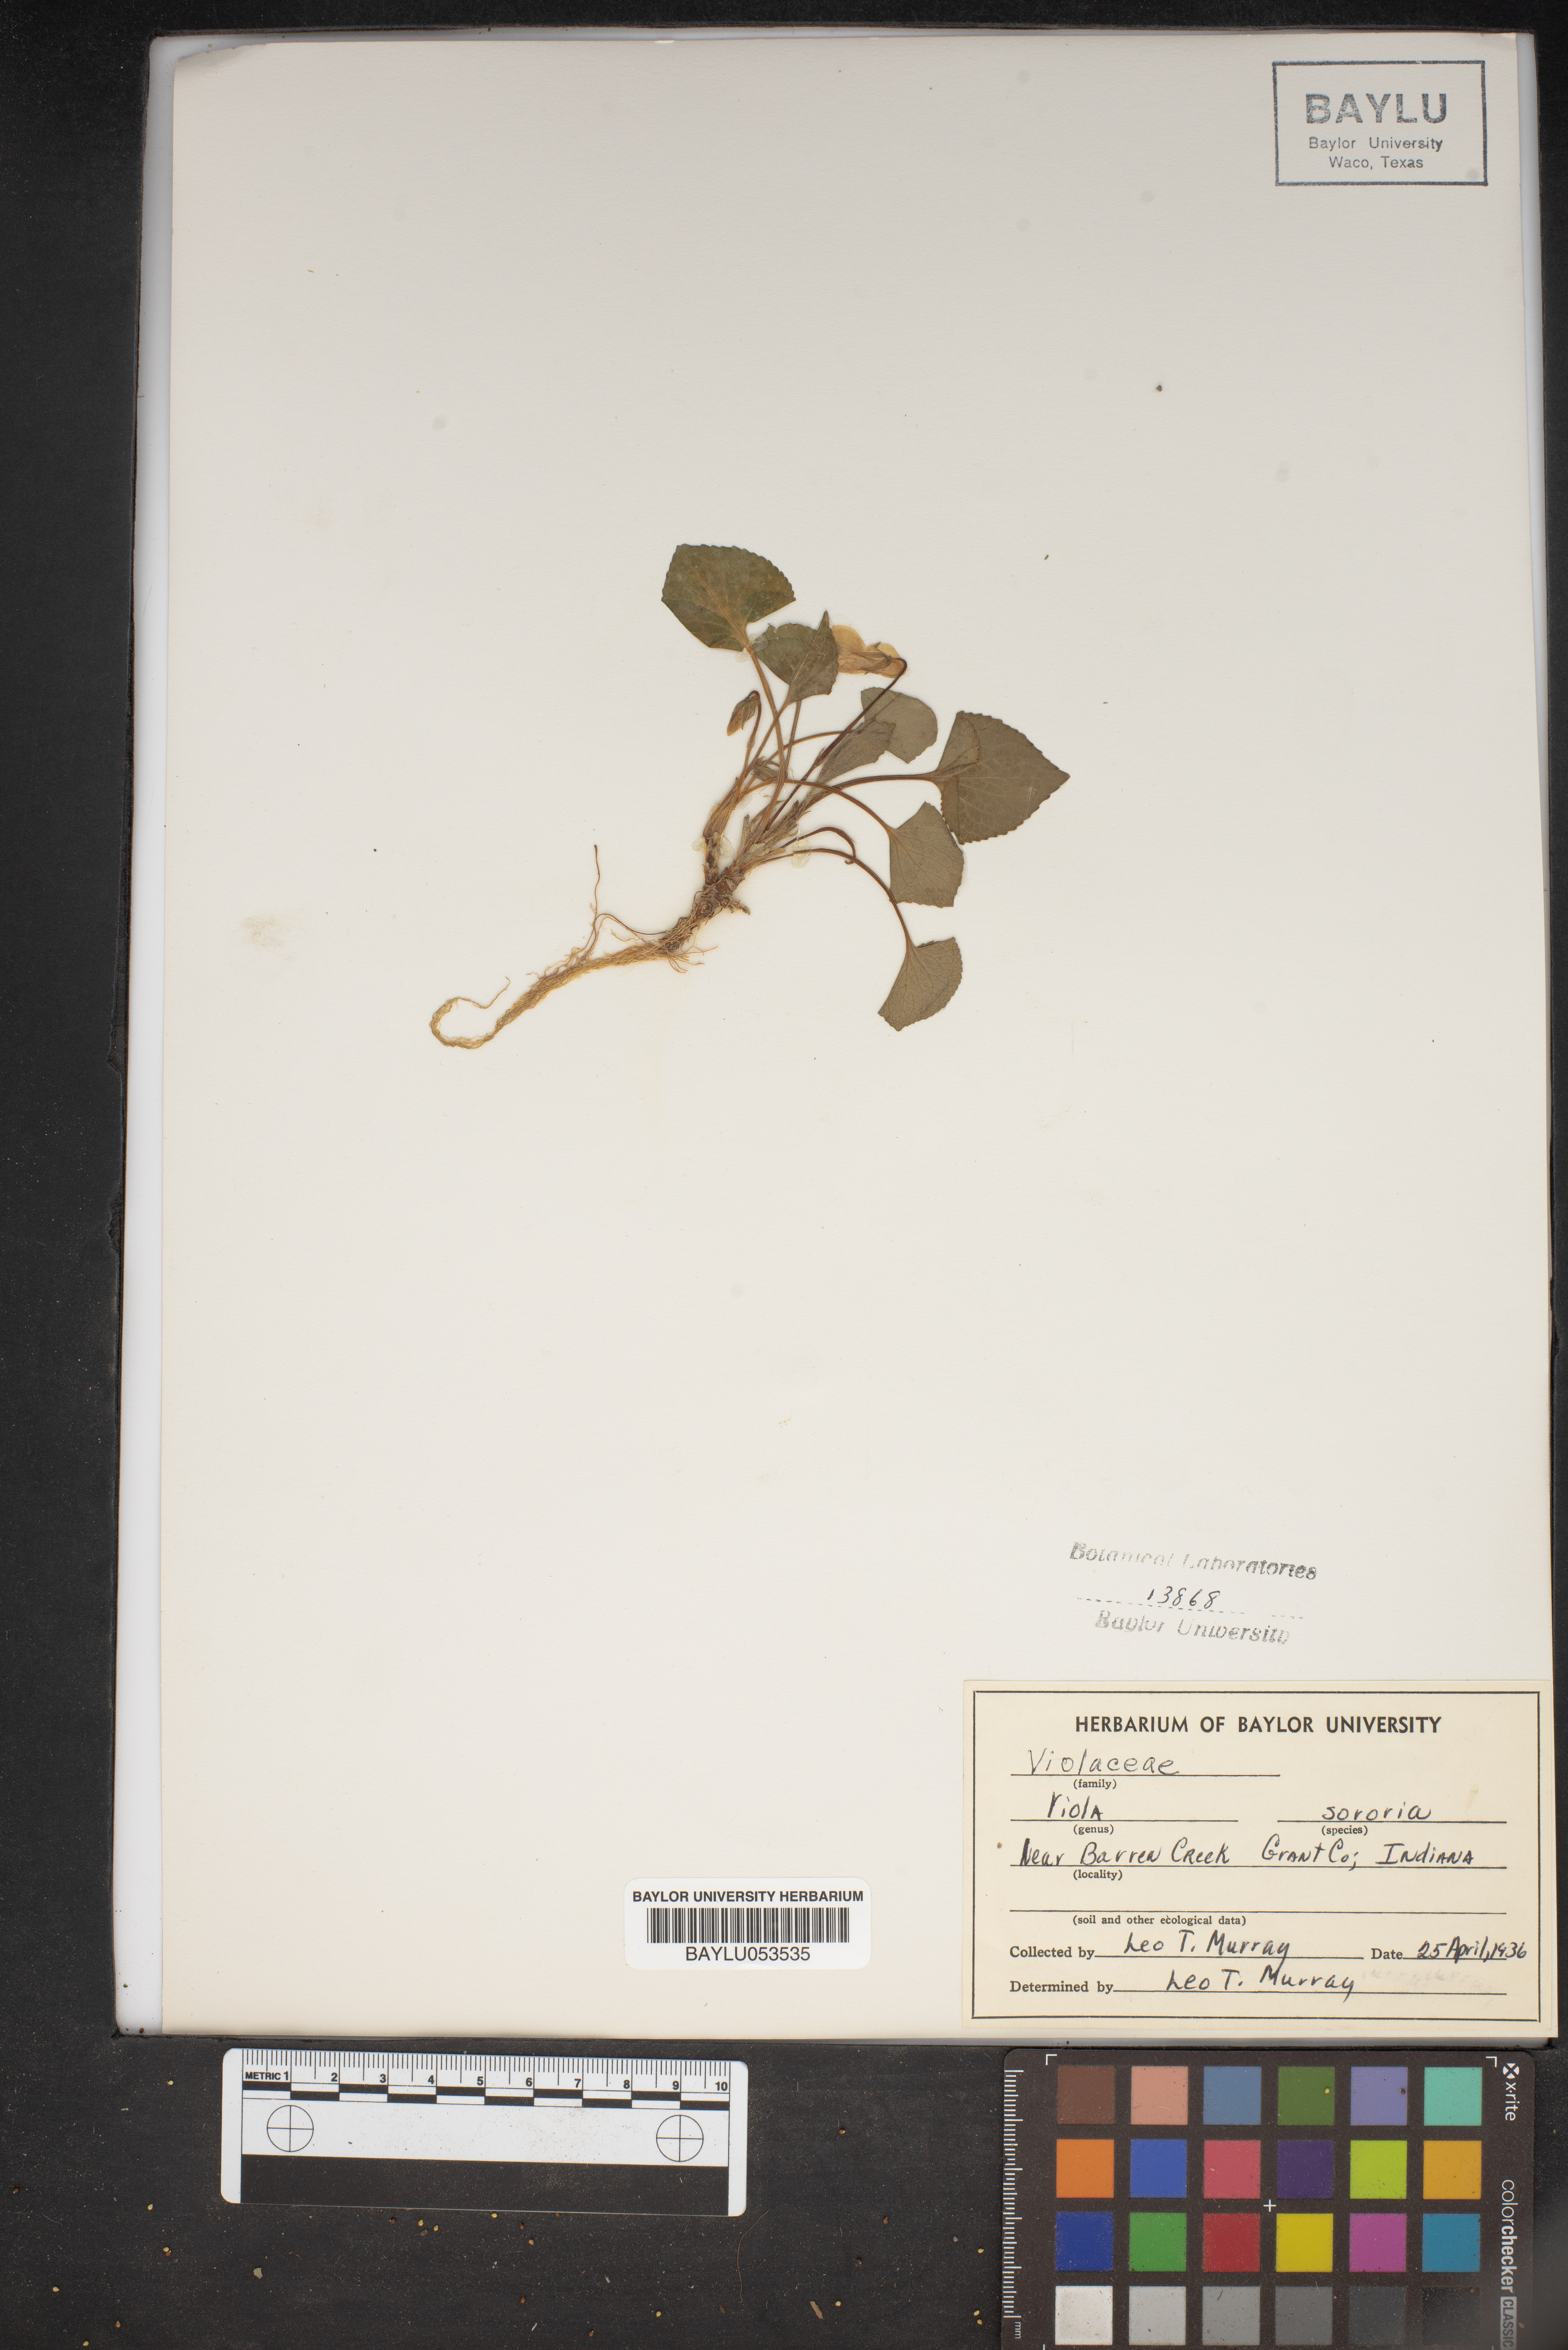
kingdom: Plantae
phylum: Tracheophyta
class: Magnoliopsida
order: Malpighiales
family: Violaceae
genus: Viola
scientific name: Viola sororia
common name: Dooryard violet
